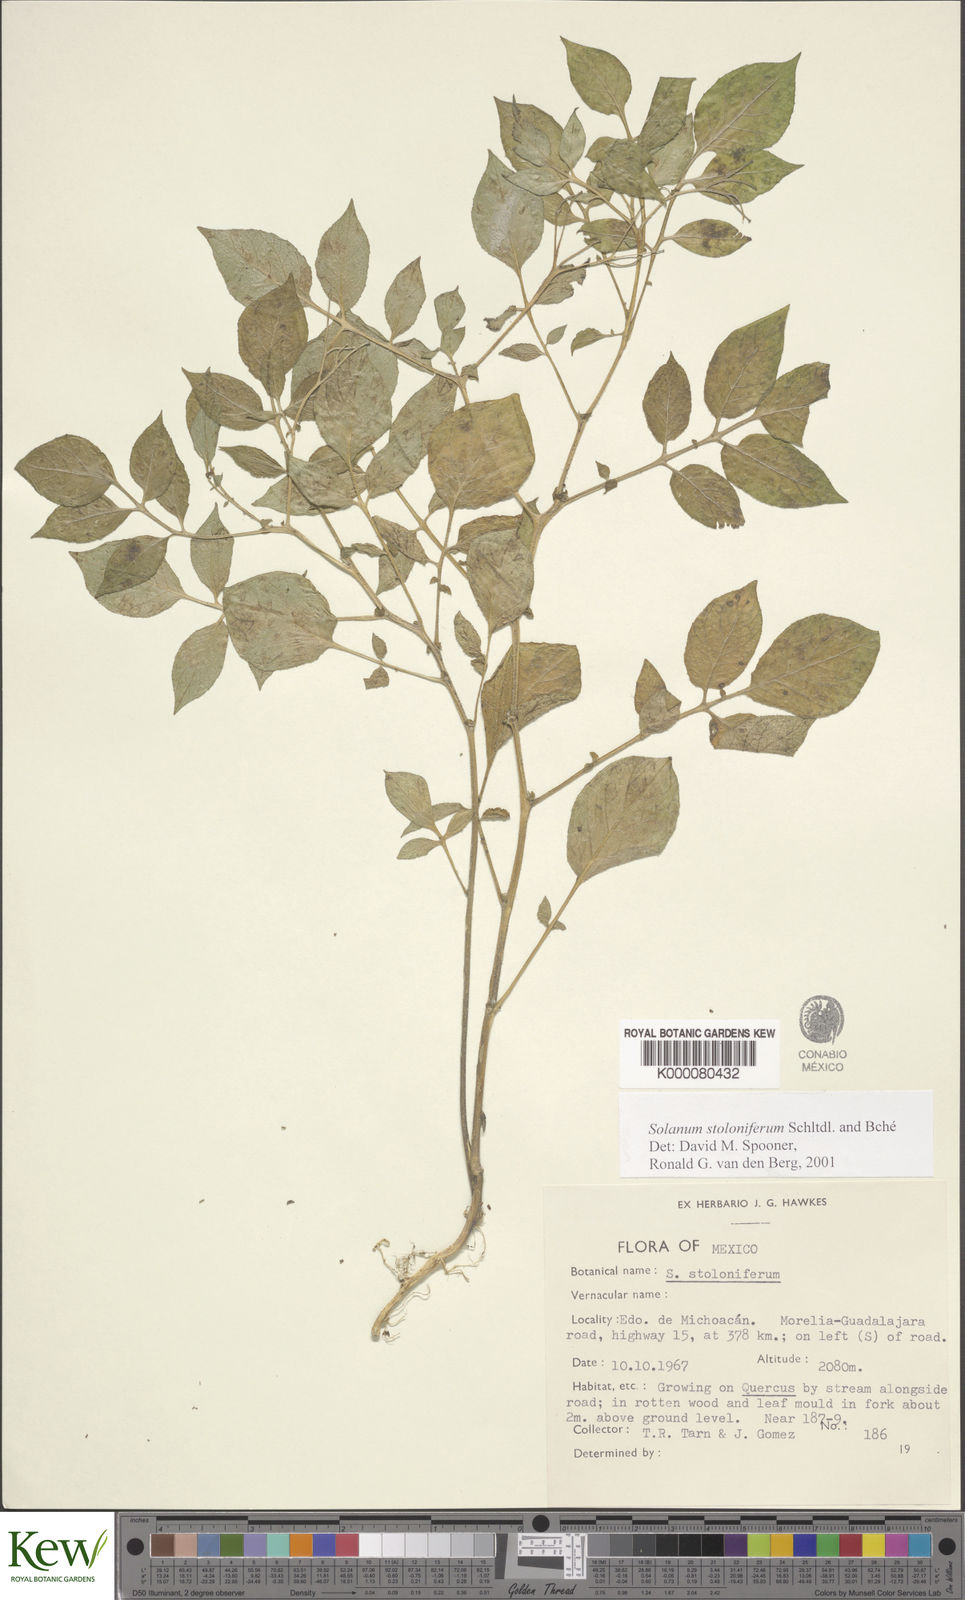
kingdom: Plantae
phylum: Tracheophyta
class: Magnoliopsida
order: Solanales
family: Solanaceae
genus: Solanum
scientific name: Solanum stoloniferum
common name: Fendler's nighshade
